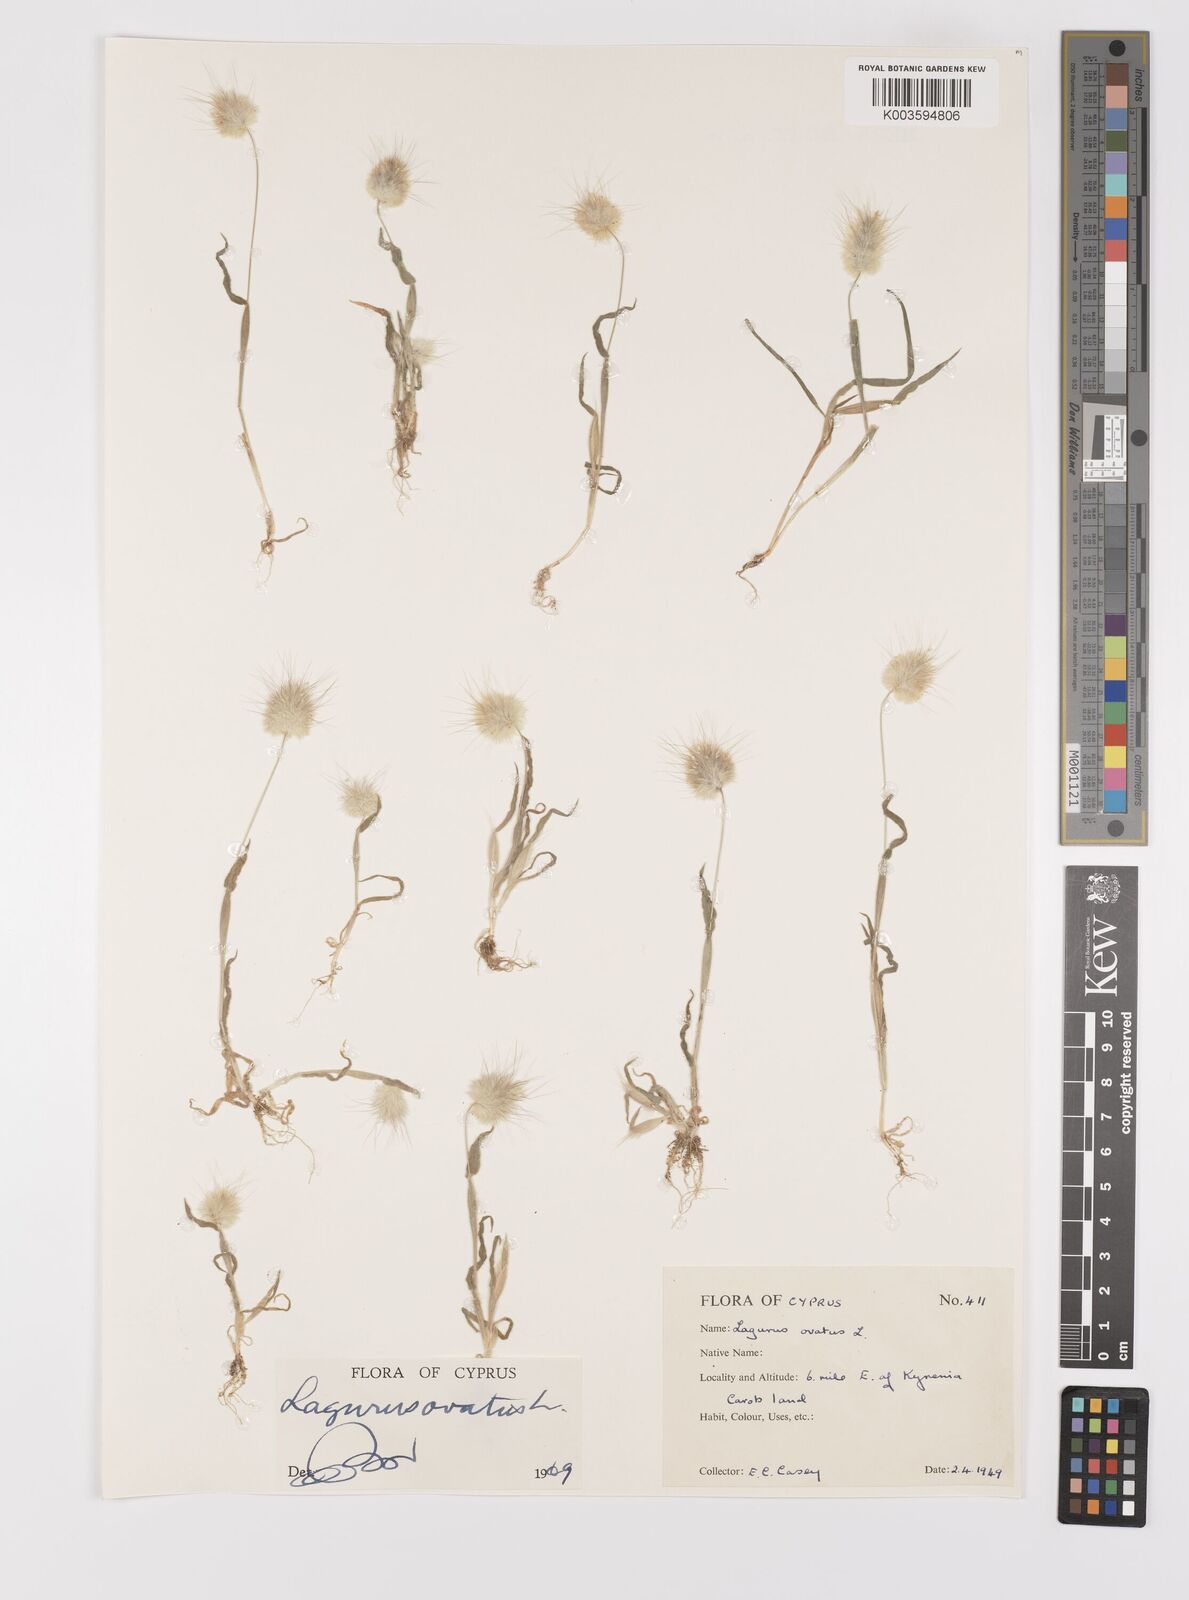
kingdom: Plantae
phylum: Tracheophyta
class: Liliopsida
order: Poales
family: Poaceae
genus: Lagurus
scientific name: Lagurus ovatus
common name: Hare's-tail
